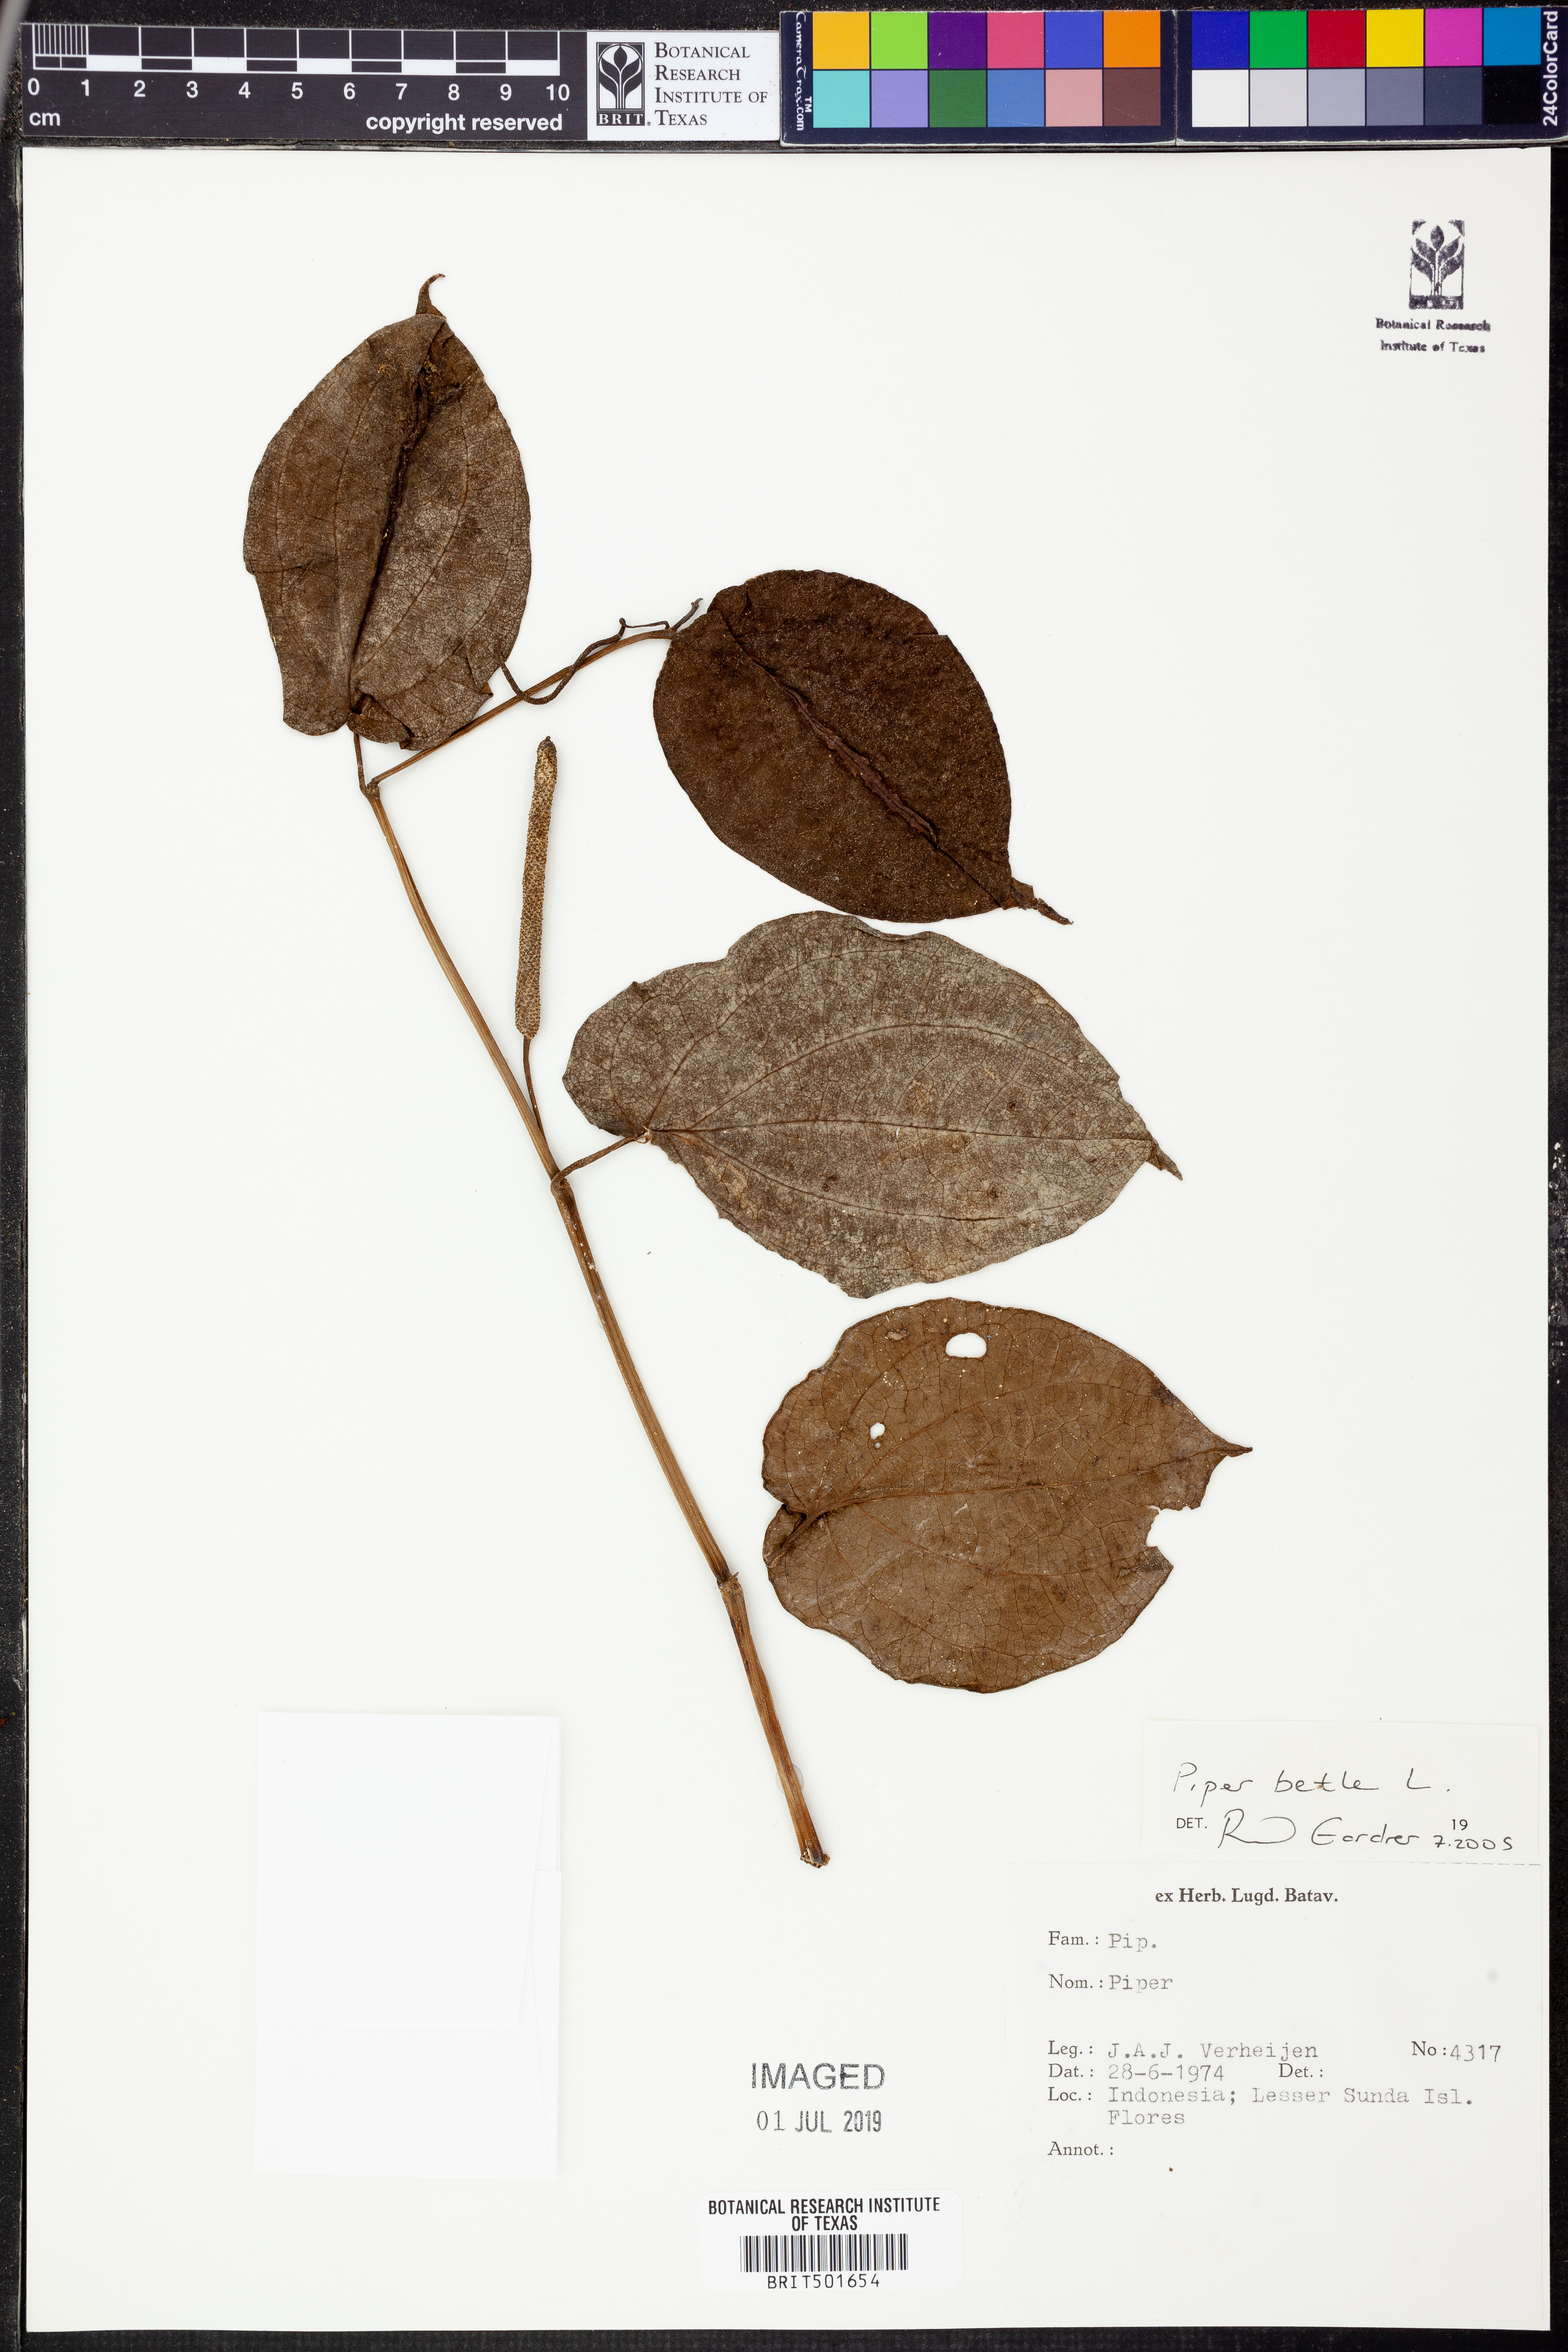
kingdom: Plantae
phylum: Tracheophyta
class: Magnoliopsida
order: Piperales
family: Piperaceae
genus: Piper
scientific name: Piper betle
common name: Betel pepper
